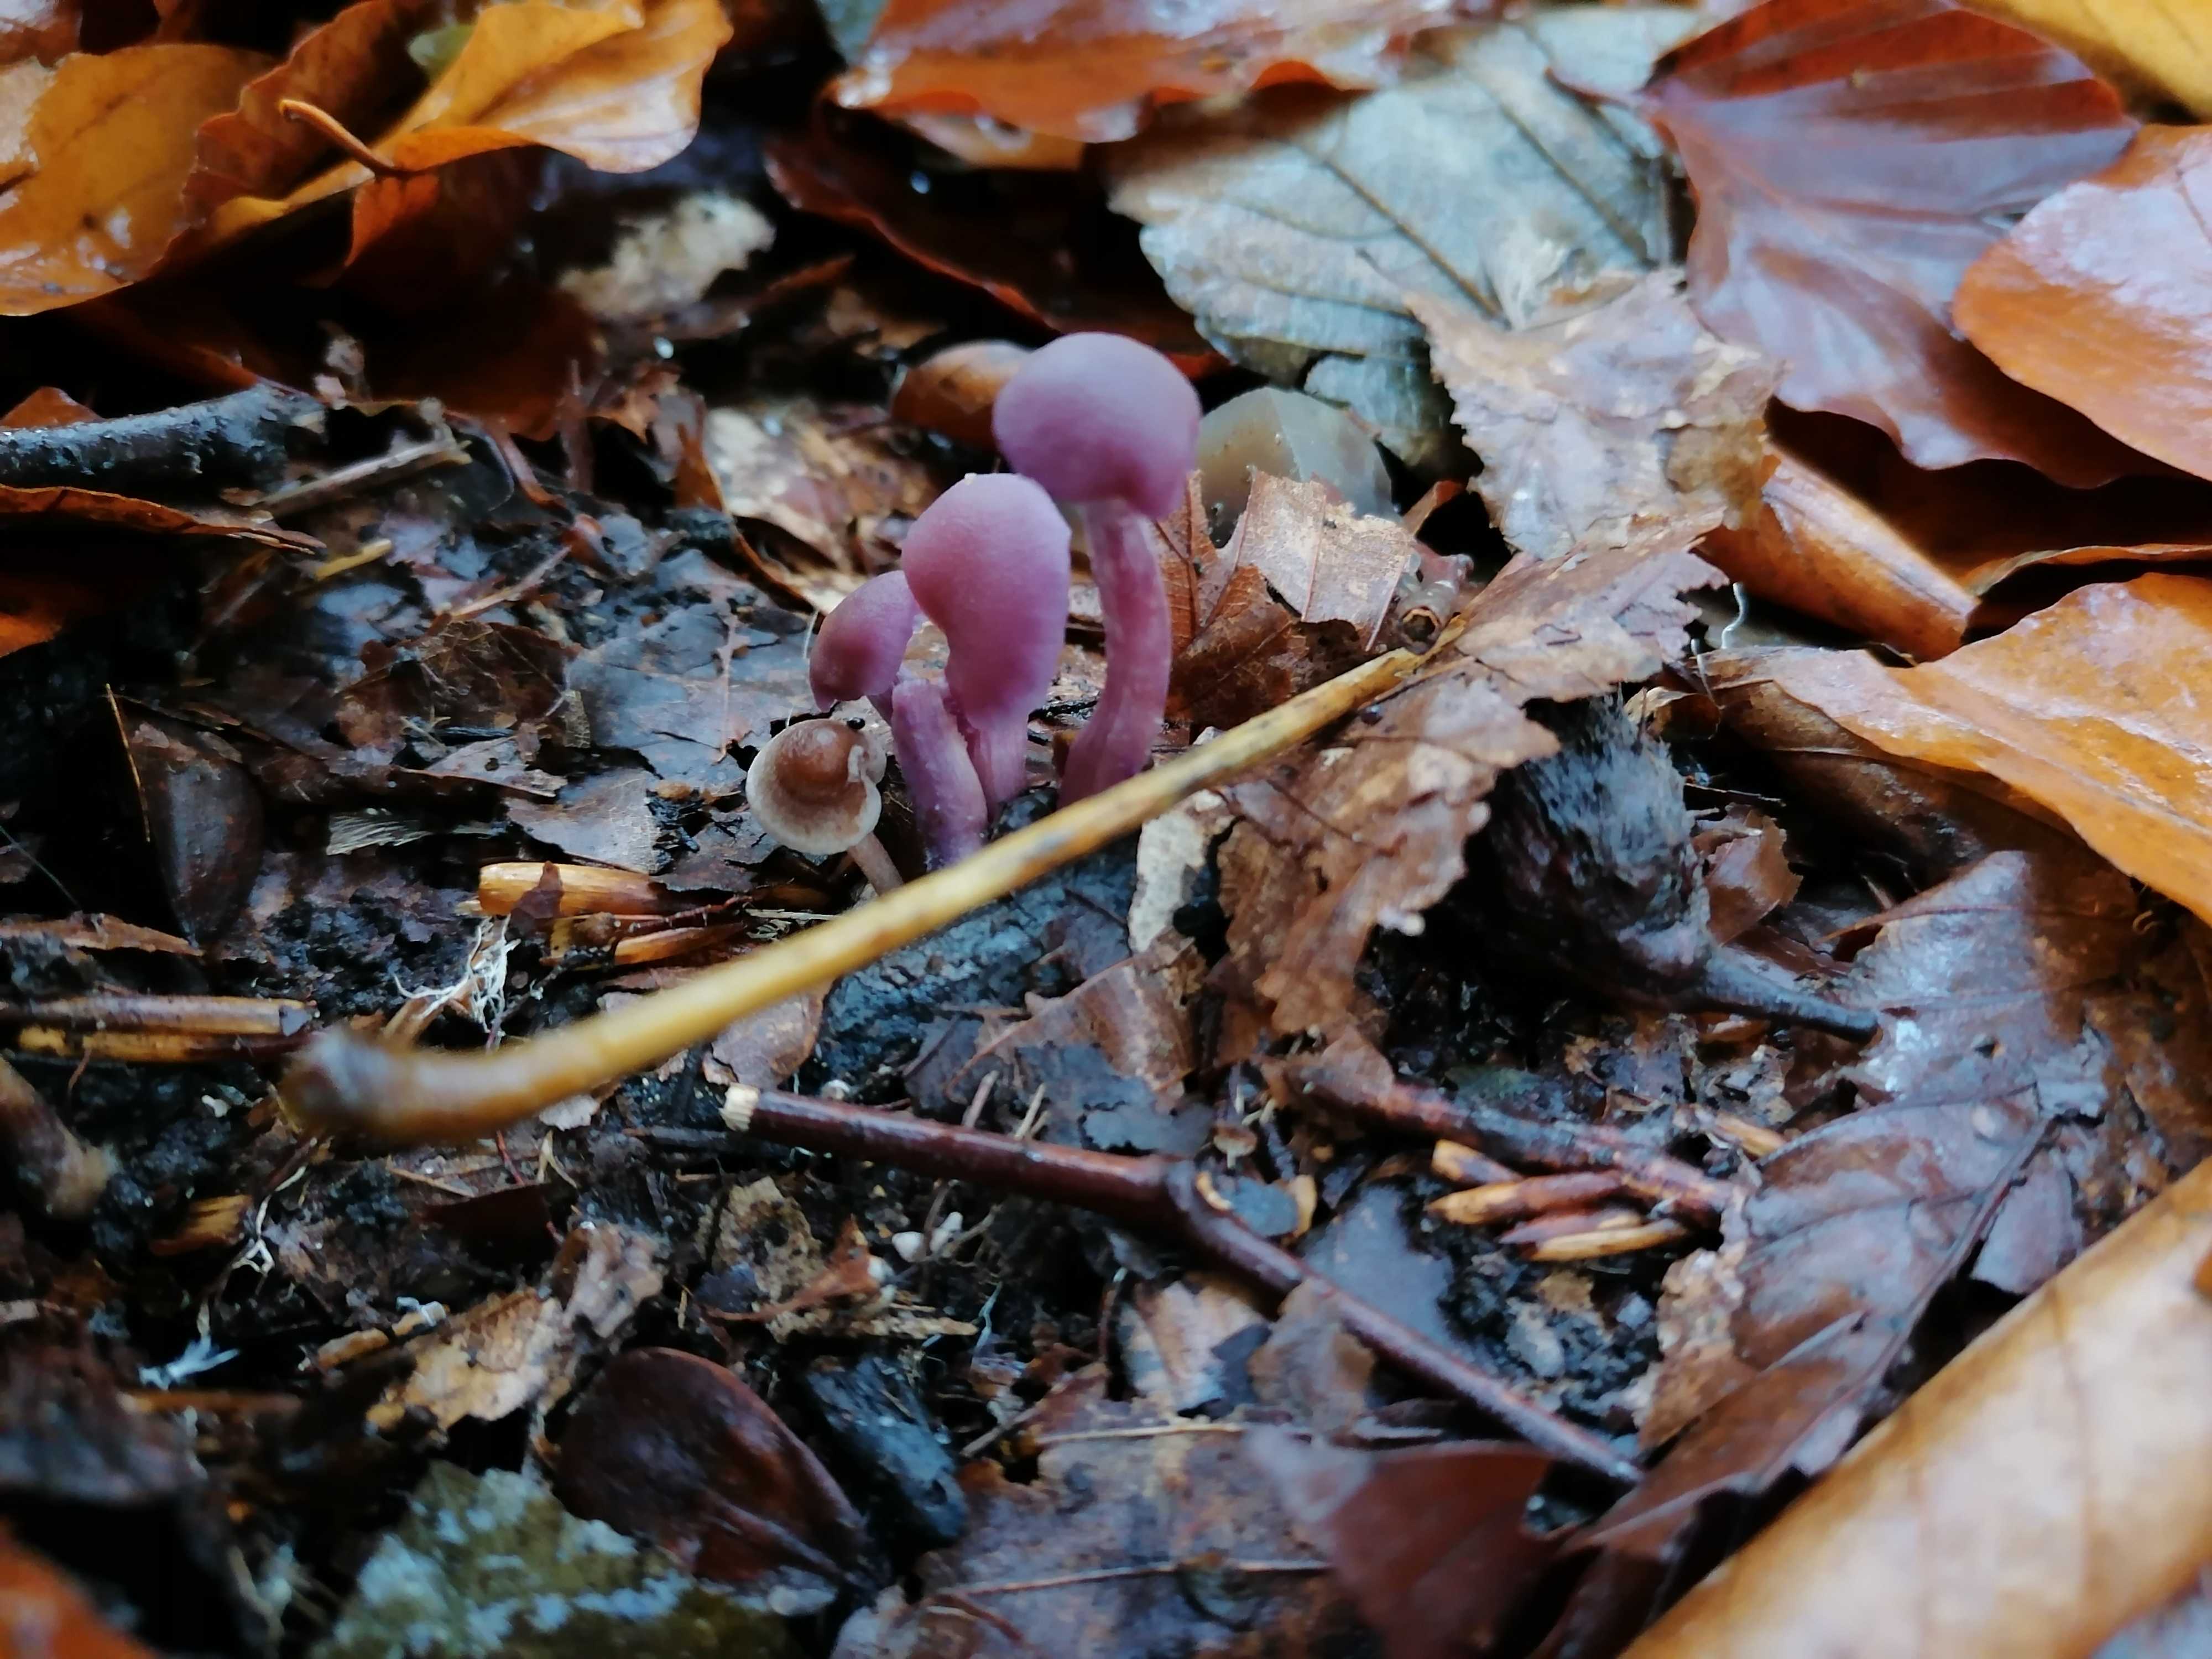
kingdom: Fungi
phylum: Basidiomycota
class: Agaricomycetes
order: Agaricales
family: Hydnangiaceae
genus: Laccaria
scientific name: Laccaria amethystina
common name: violet ametysthat
